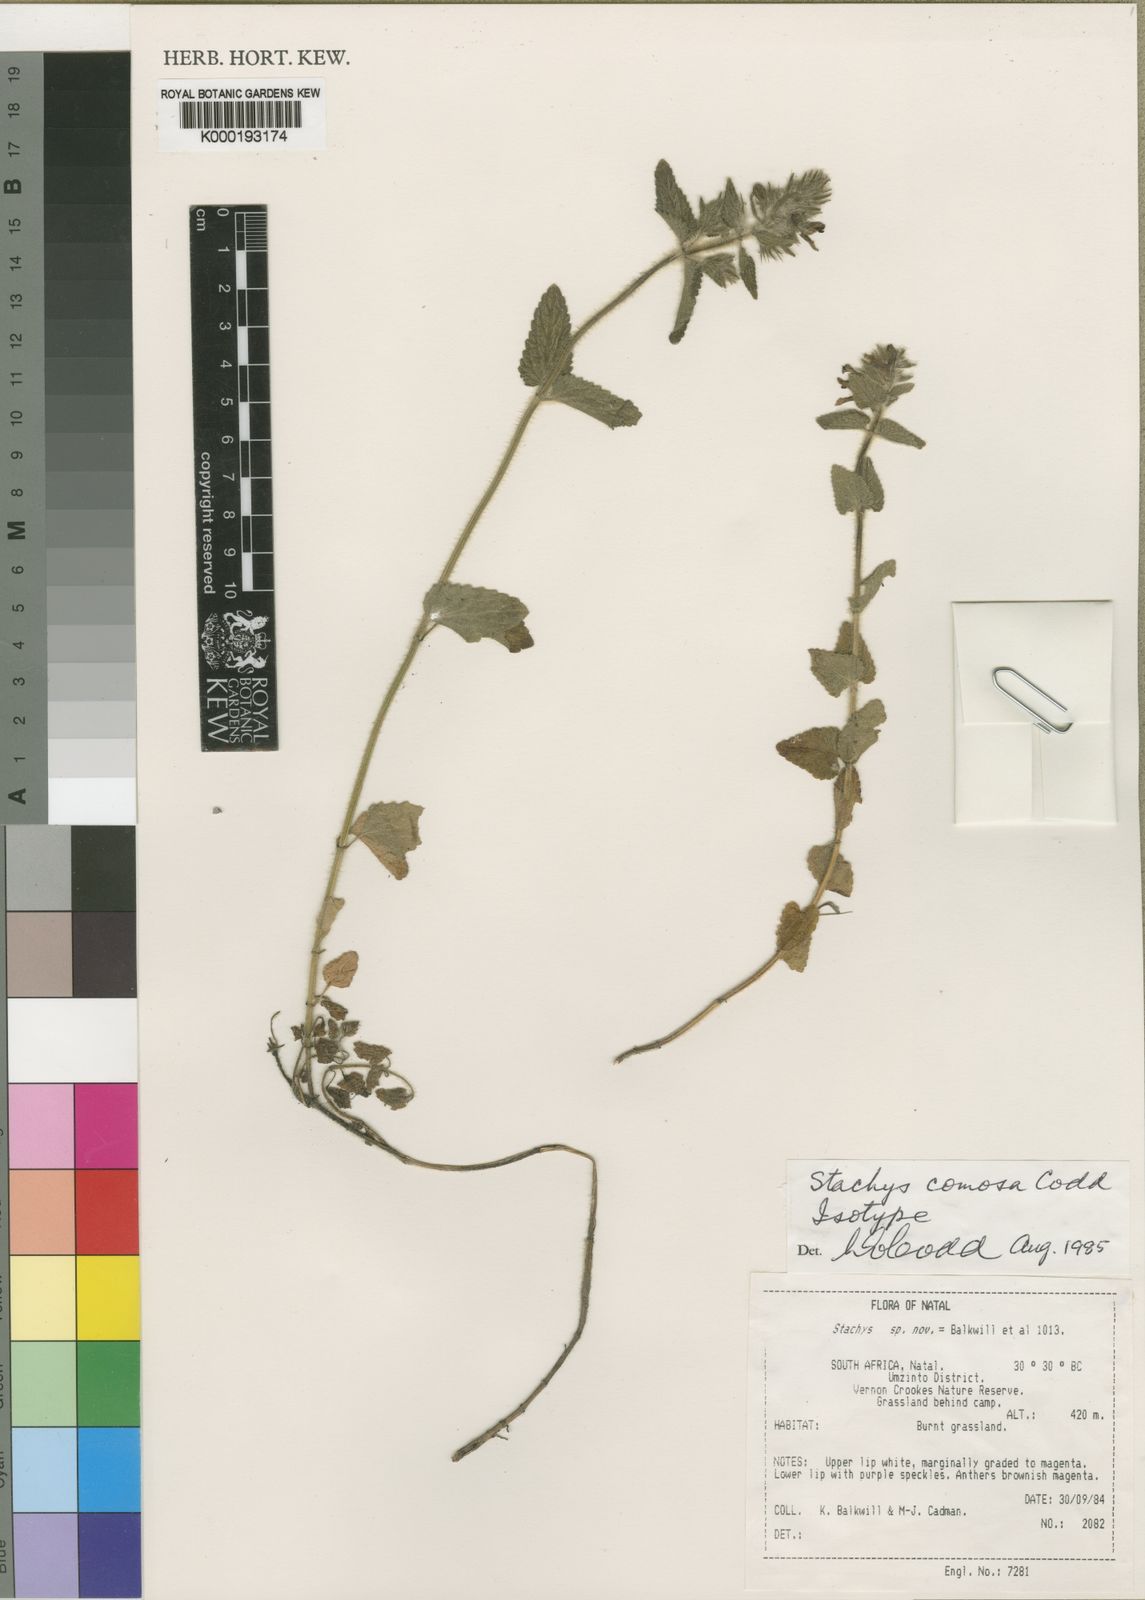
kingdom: Plantae
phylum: Tracheophyta
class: Magnoliopsida
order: Lamiales
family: Lamiaceae
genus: Stachys
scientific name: Stachys comosa
